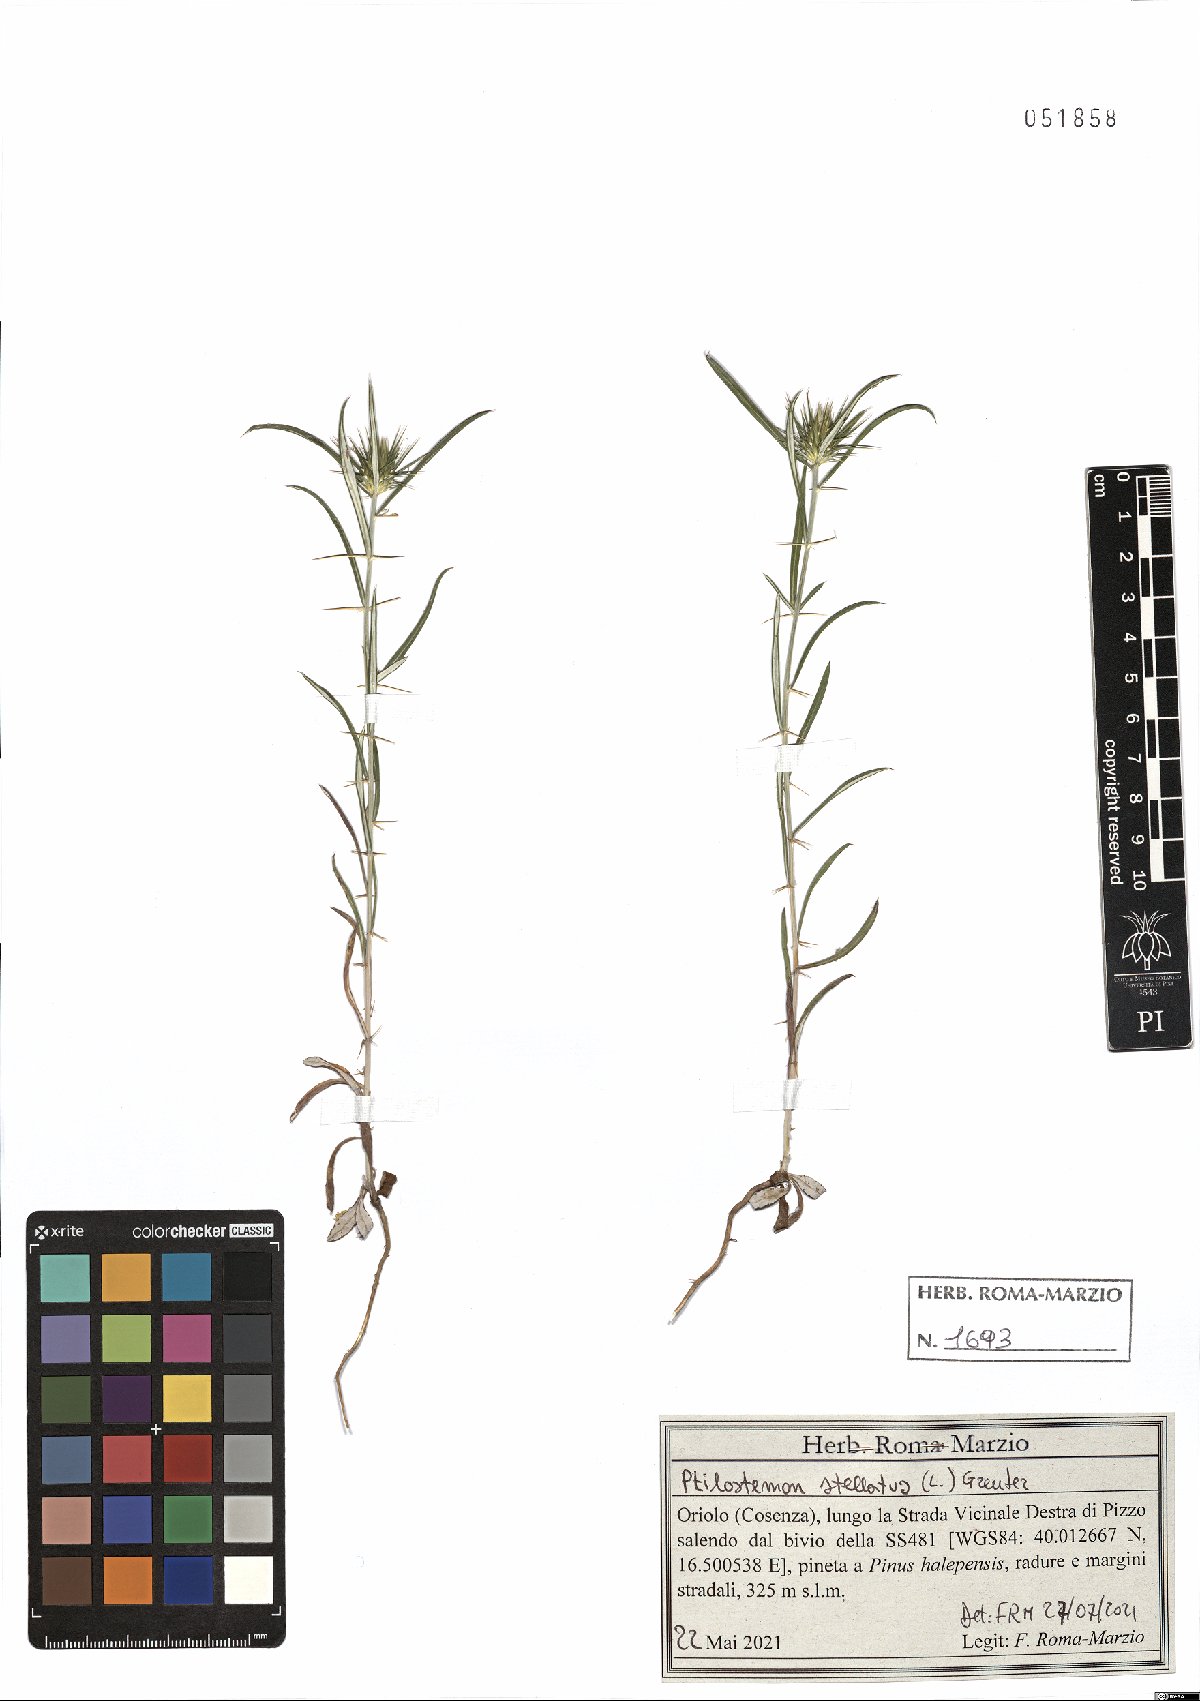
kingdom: Plantae
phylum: Tracheophyta
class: Magnoliopsida
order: Asterales
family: Asteraceae
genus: Ptilostemon
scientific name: Ptilostemon stellatus
